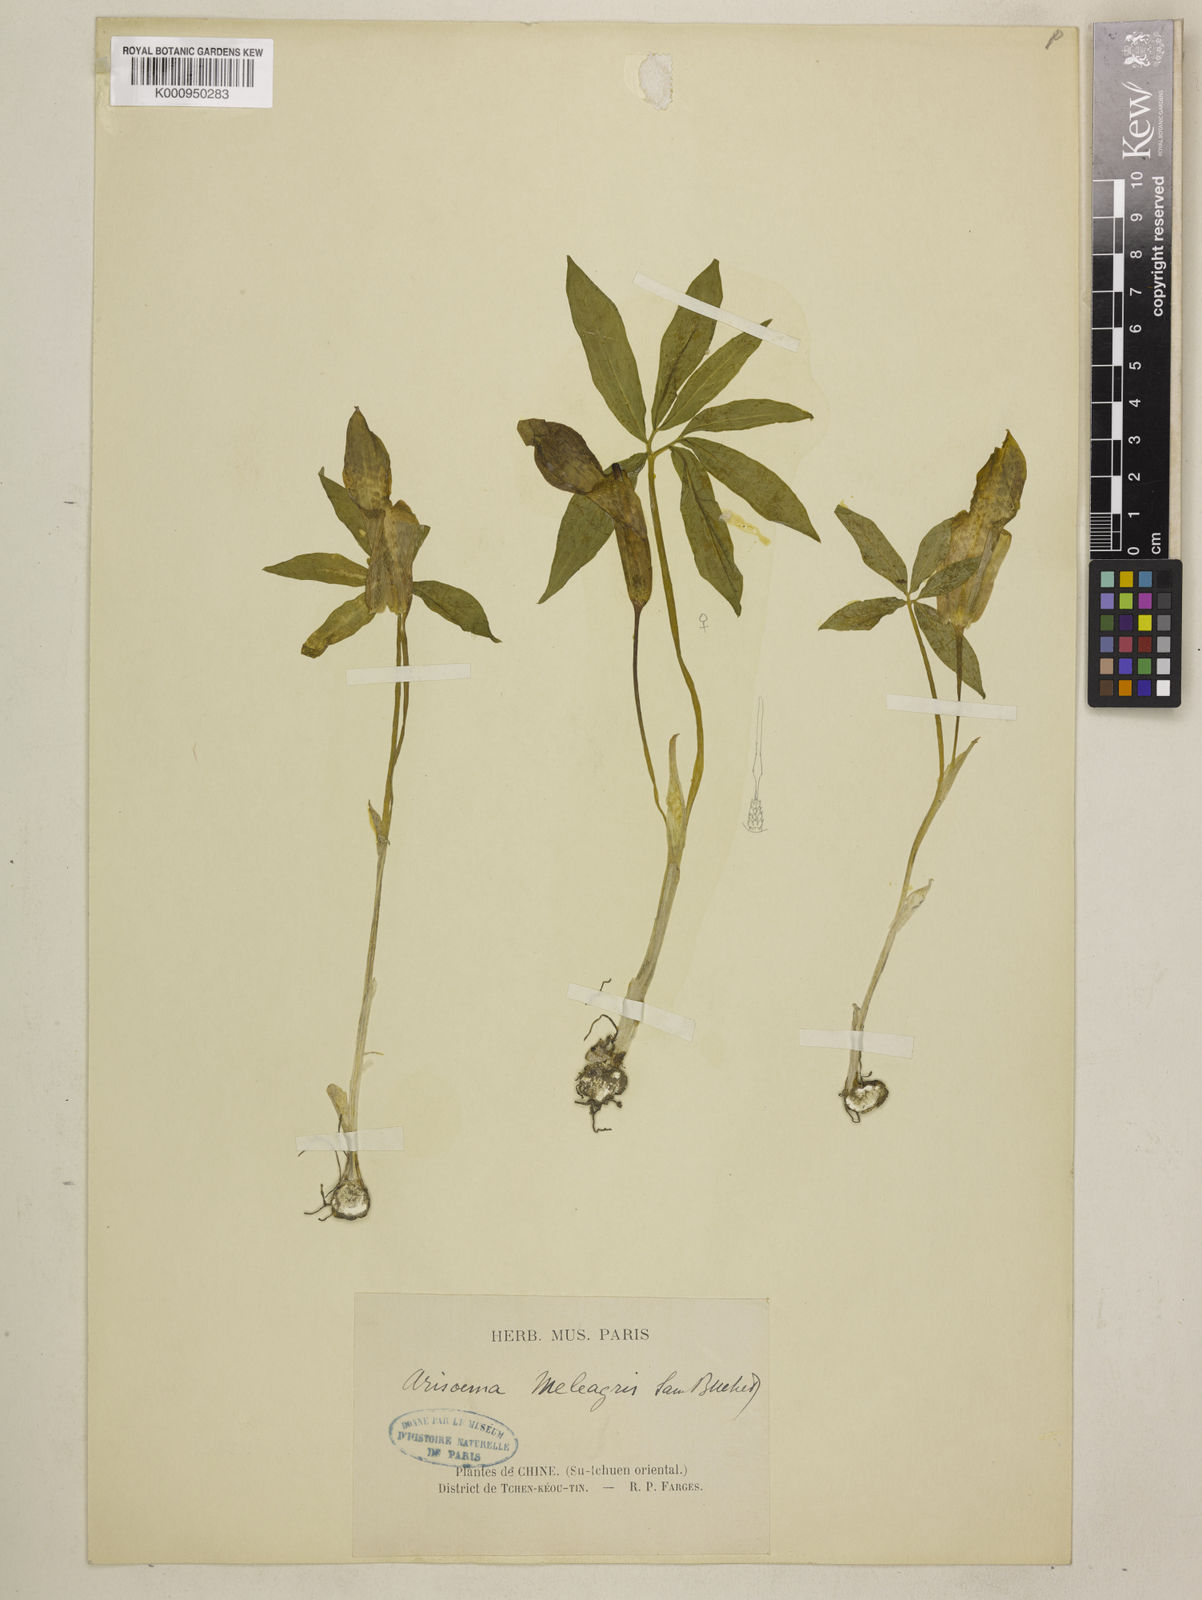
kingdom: Plantae
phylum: Tracheophyta
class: Liliopsida
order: Alismatales
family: Araceae
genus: Arisaema
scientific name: Arisaema meleagris
